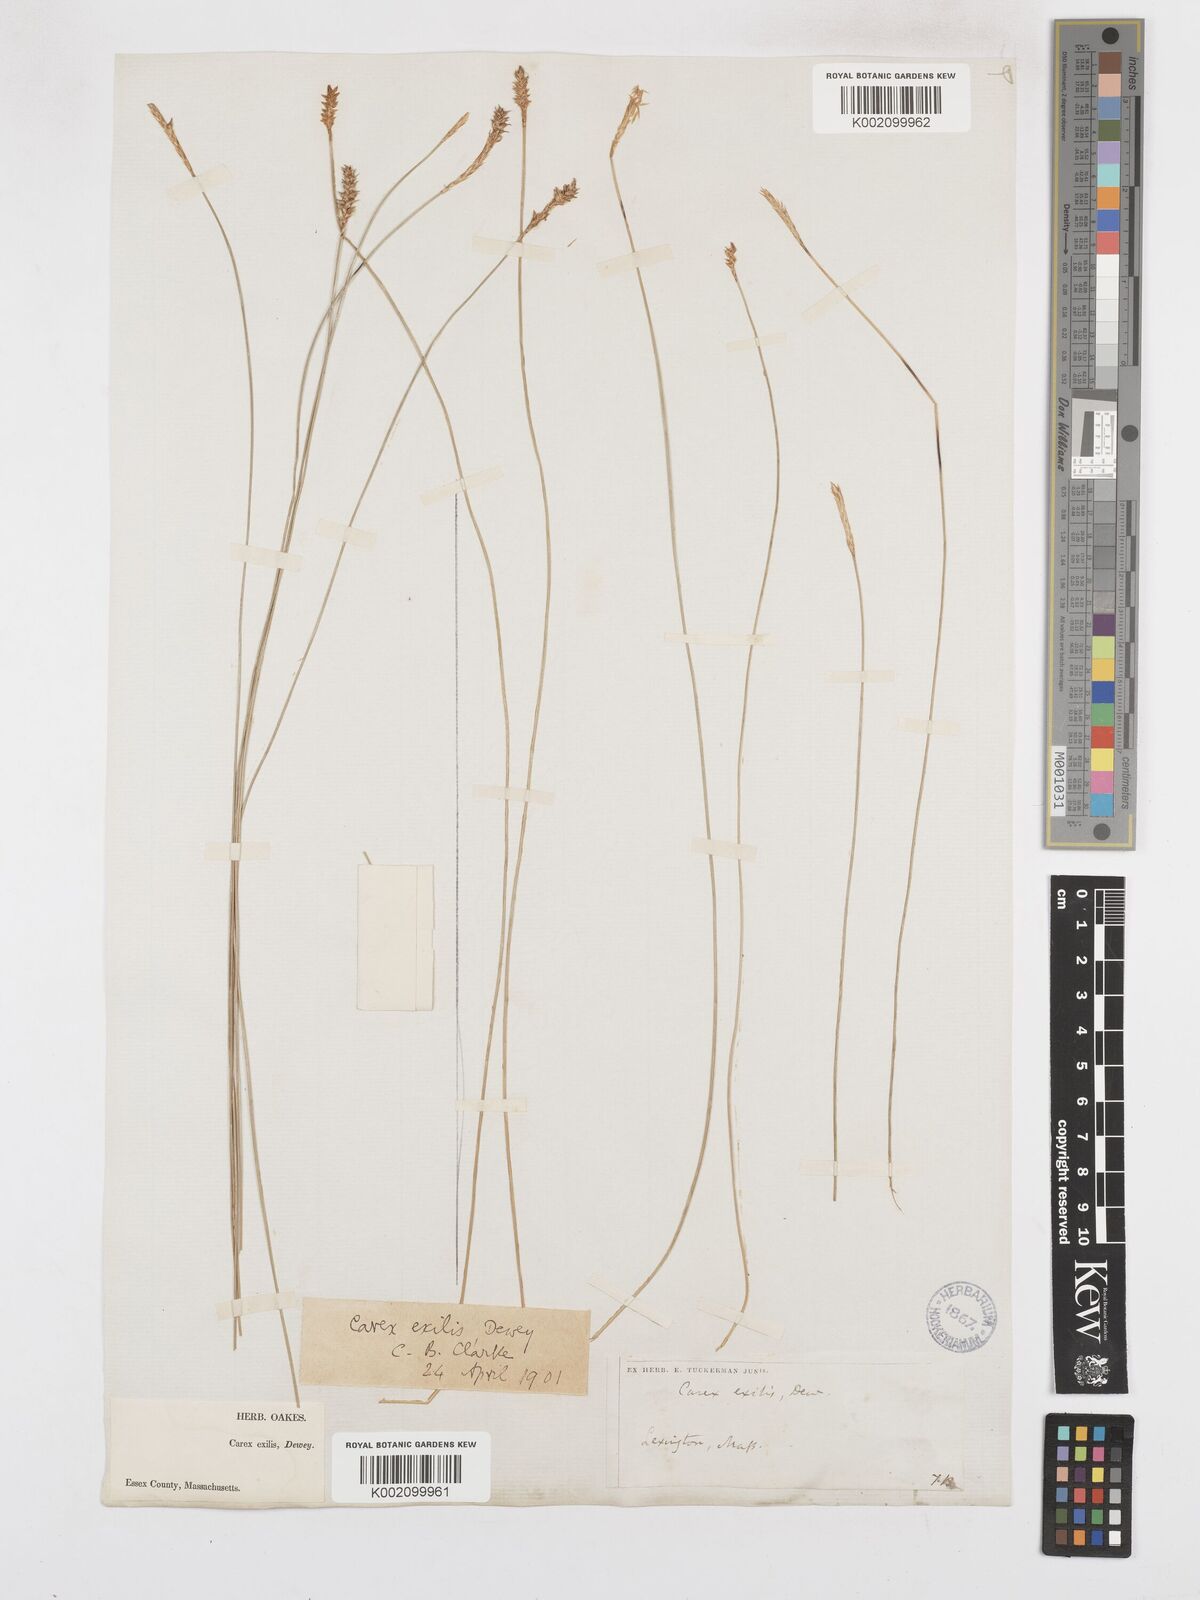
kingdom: Plantae
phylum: Tracheophyta
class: Liliopsida
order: Poales
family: Cyperaceae
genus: Carex
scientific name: Carex exilis
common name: Coastal sedge
